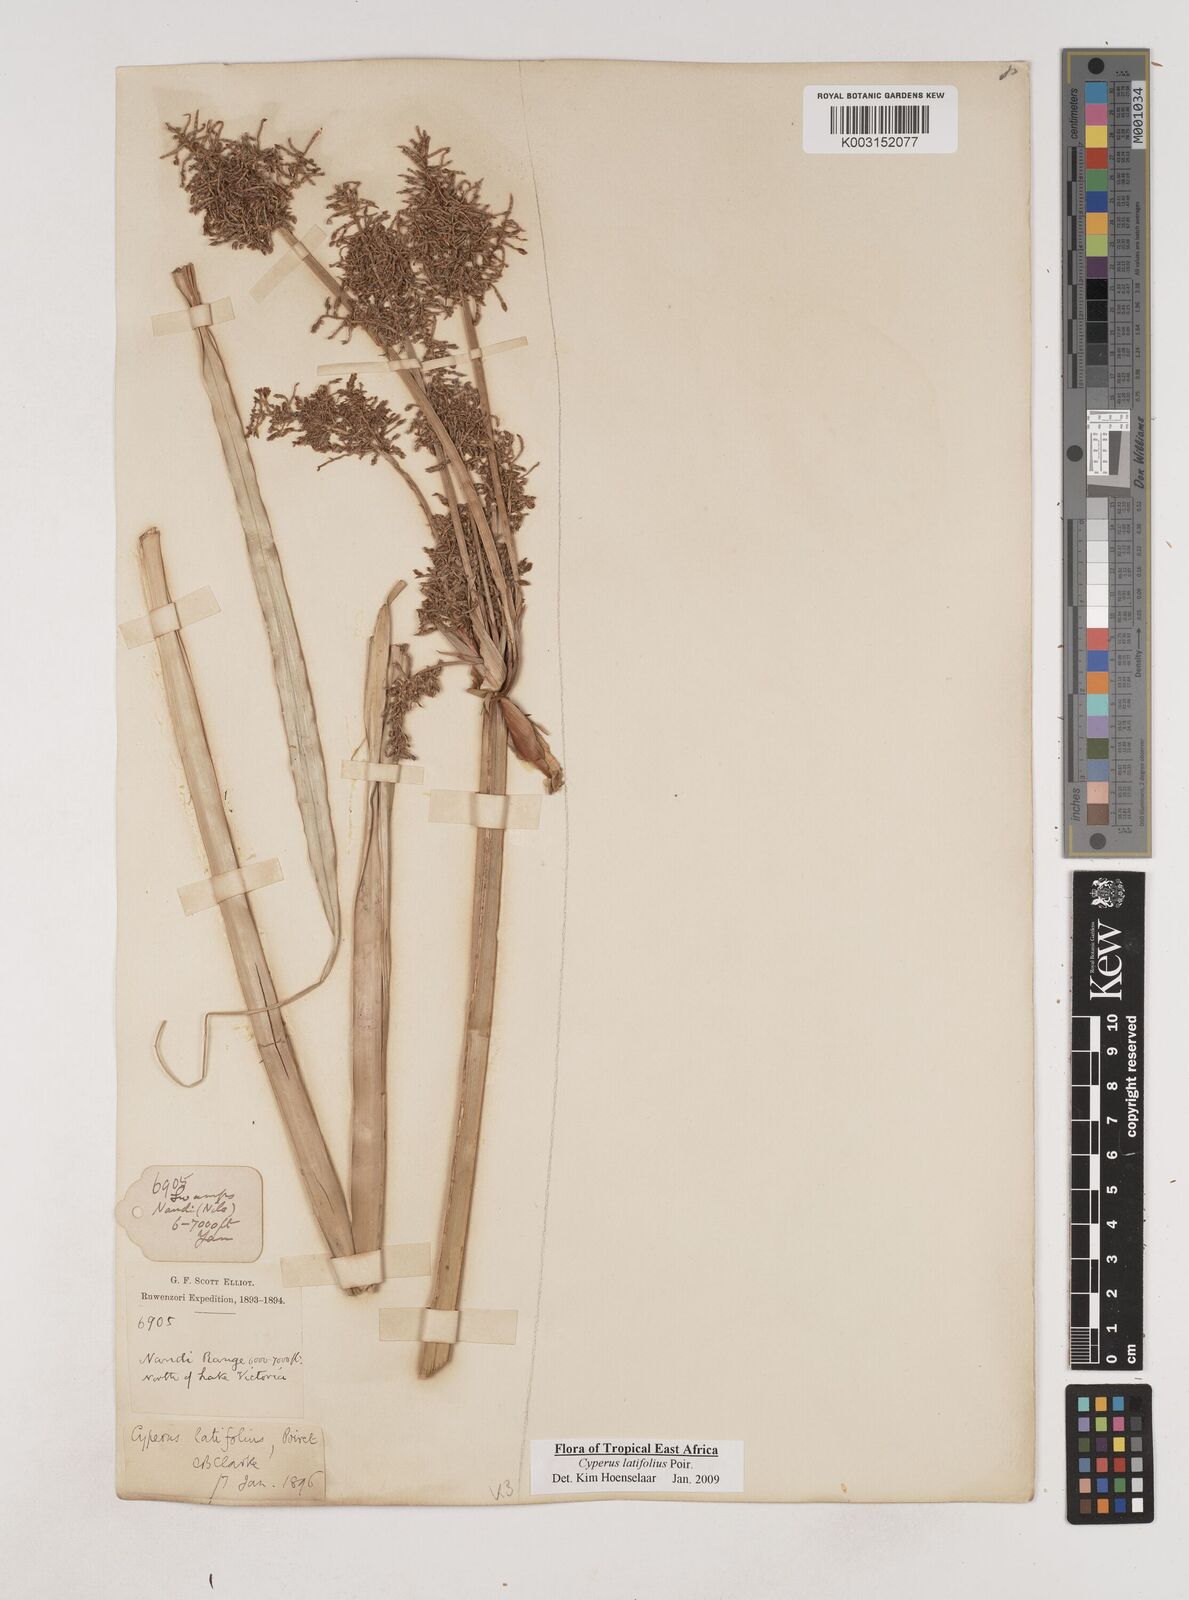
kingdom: Plantae
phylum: Tracheophyta
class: Liliopsida
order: Poales
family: Cyperaceae
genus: Cyperus
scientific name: Cyperus latifolius
